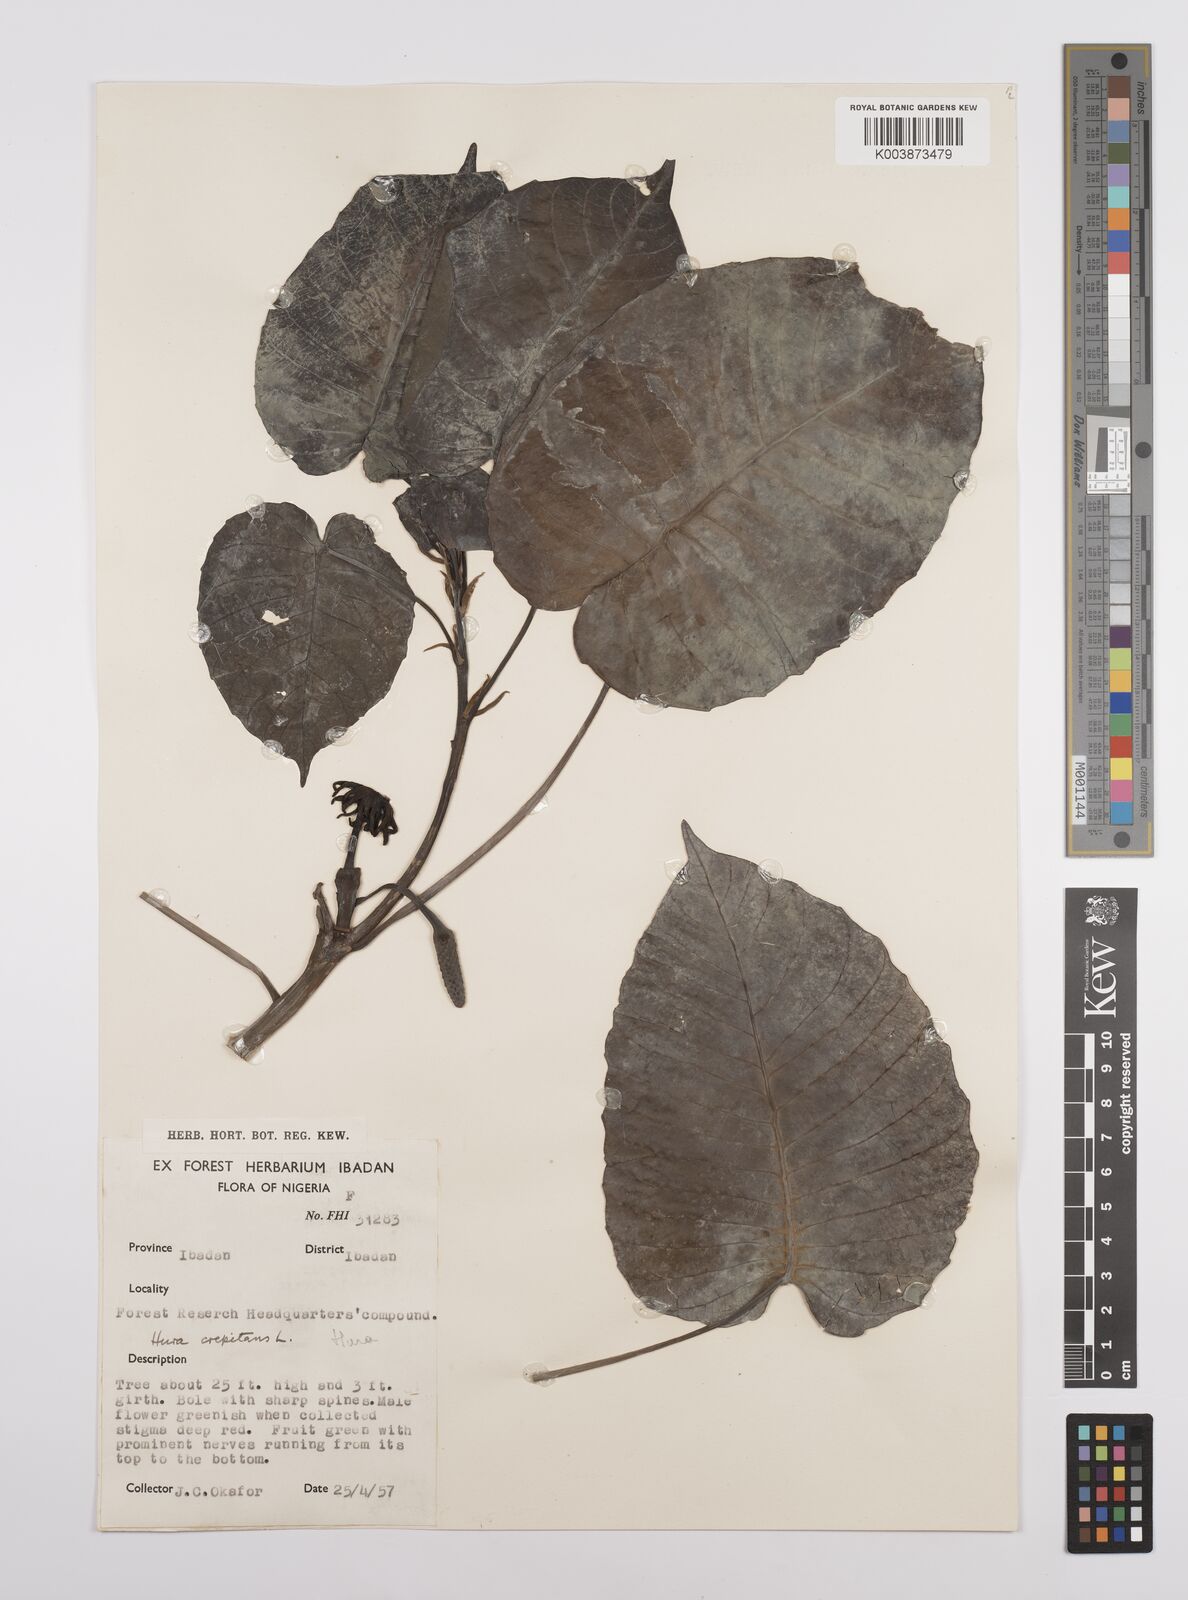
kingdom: Plantae
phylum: Tracheophyta
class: Magnoliopsida
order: Malpighiales
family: Euphorbiaceae
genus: Hura
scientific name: Hura crepitans
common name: Sandboxtree
